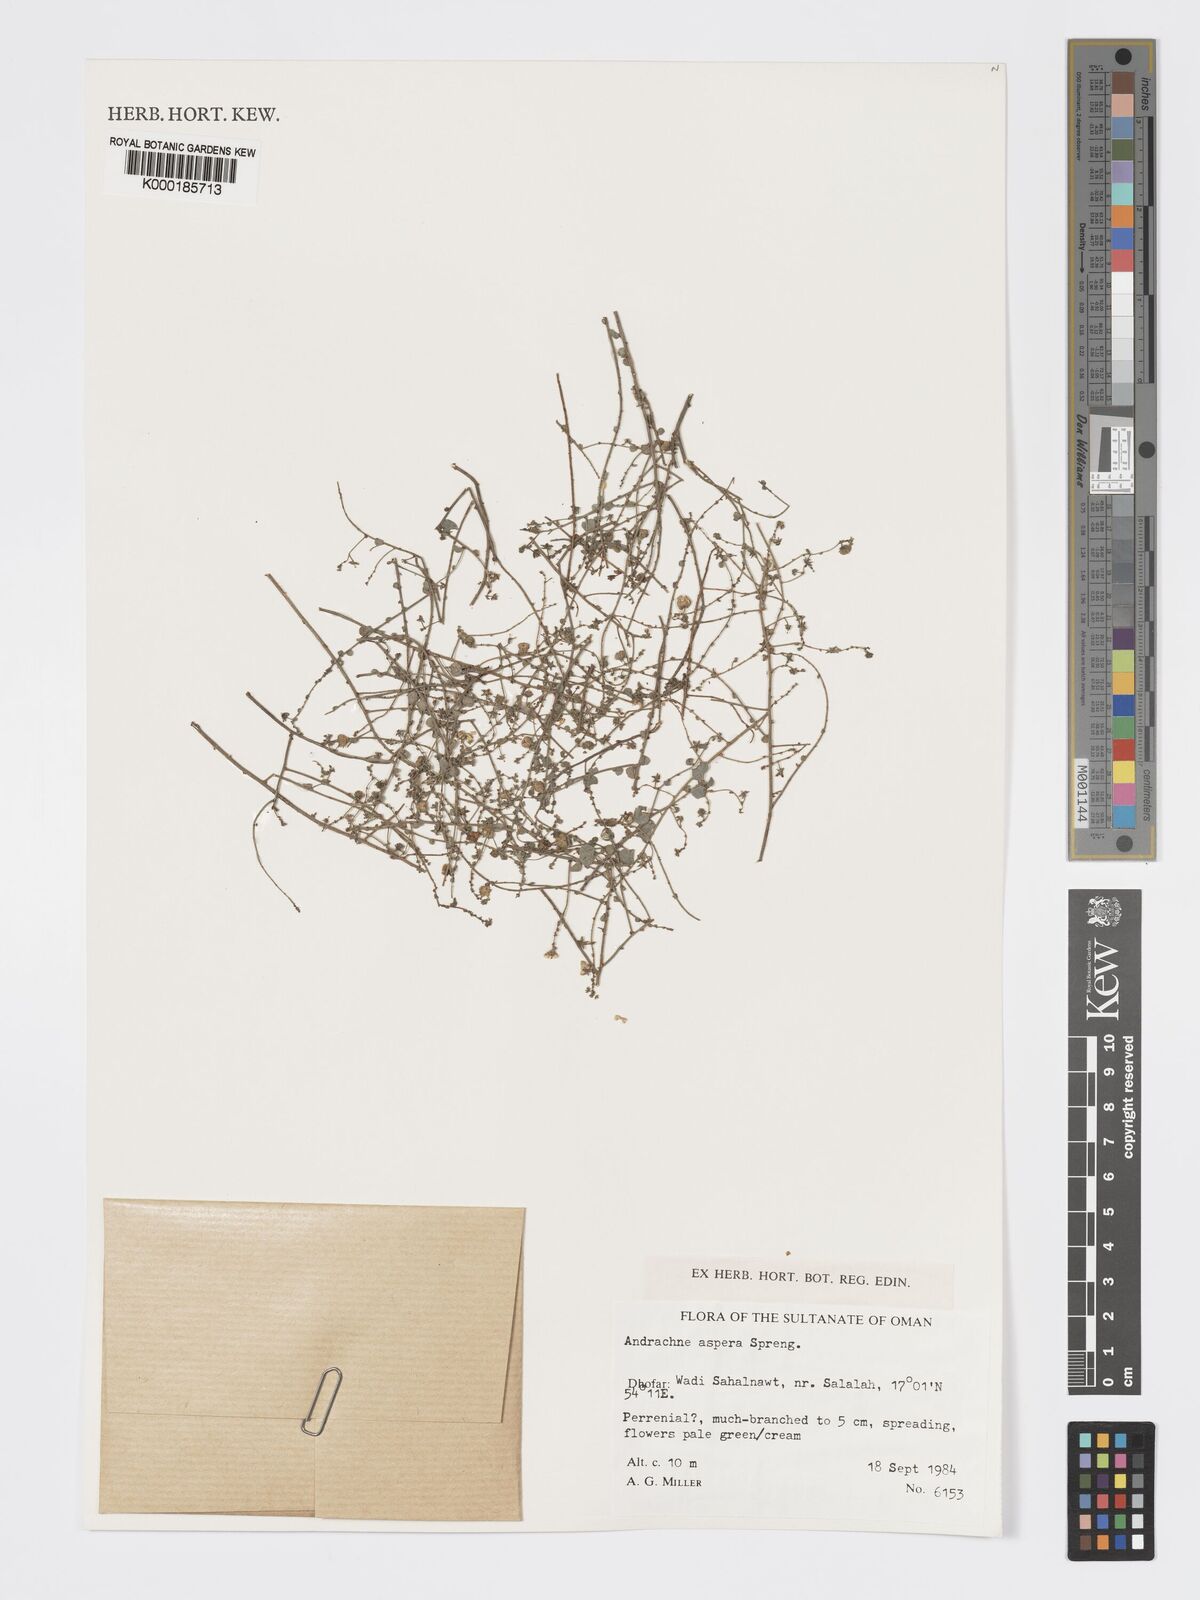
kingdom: Plantae
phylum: Tracheophyta
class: Magnoliopsida
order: Malpighiales
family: Phyllanthaceae
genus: Andrachne
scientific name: Andrachne aspera
